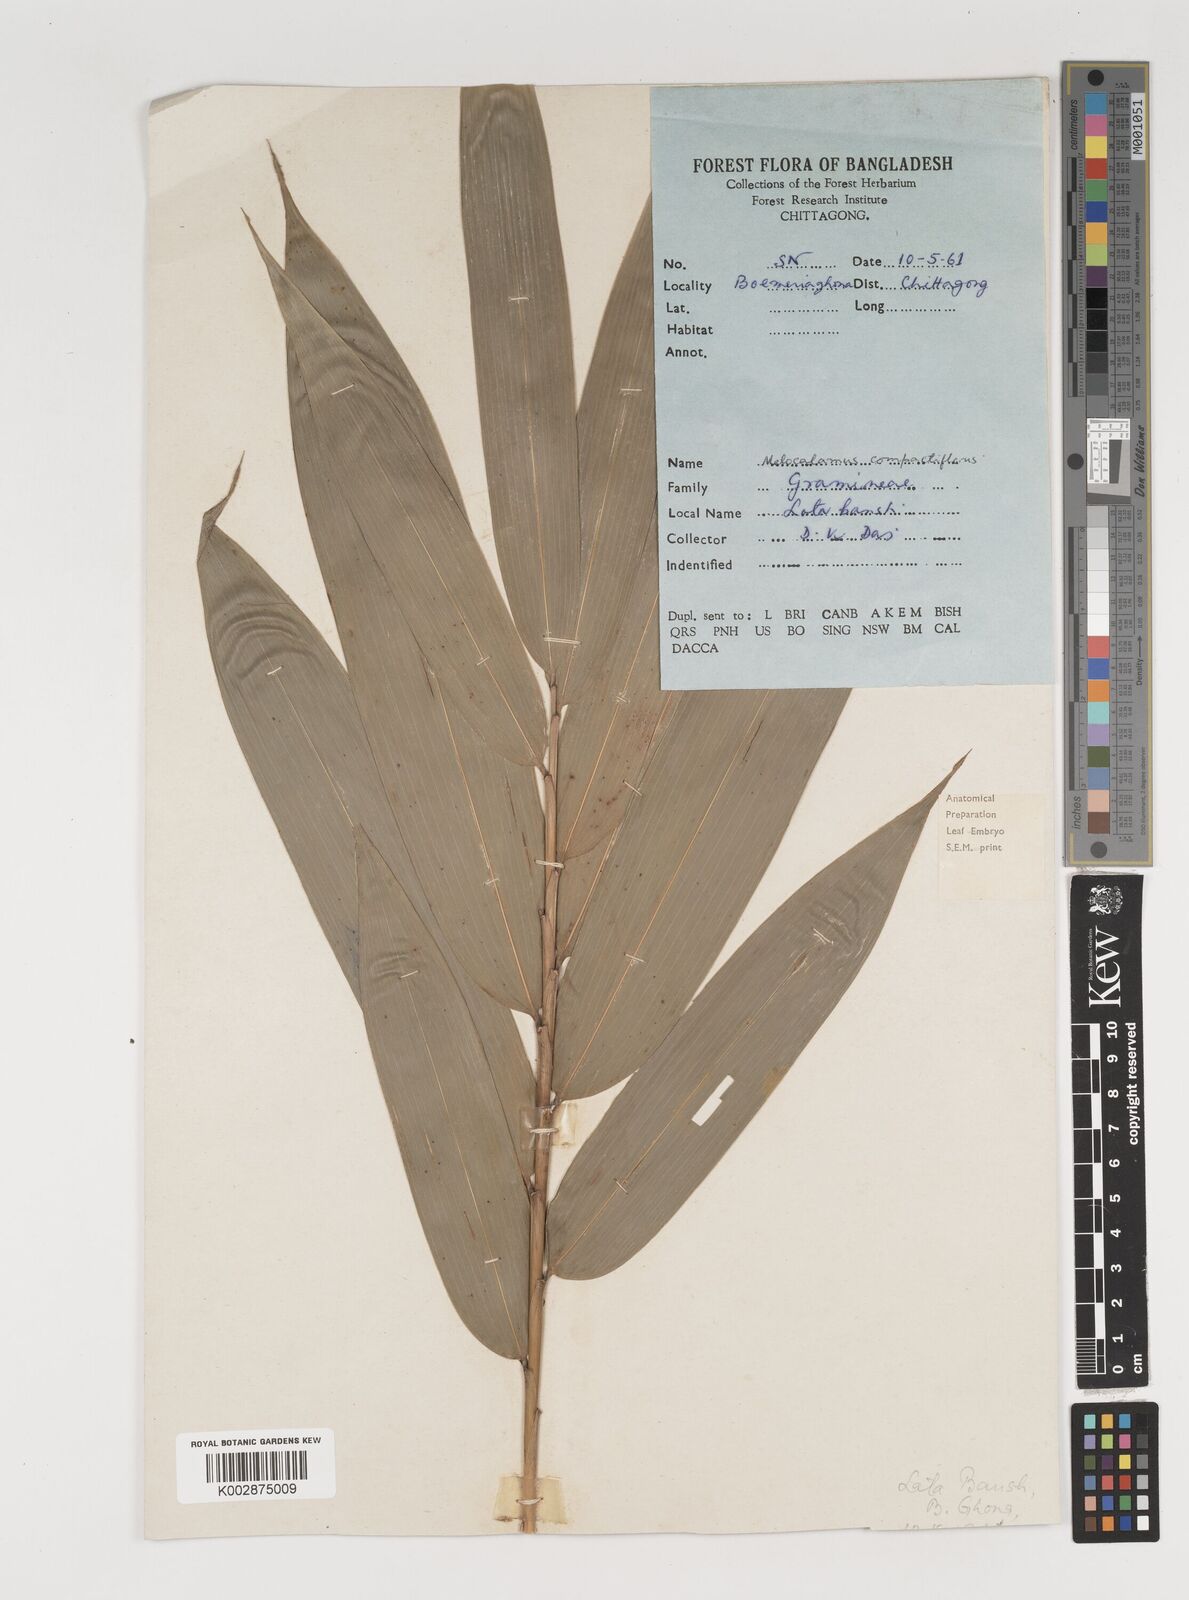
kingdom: Plantae
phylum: Tracheophyta
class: Liliopsida
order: Poales
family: Poaceae
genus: Melocalamus
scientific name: Melocalamus compactiflorus
